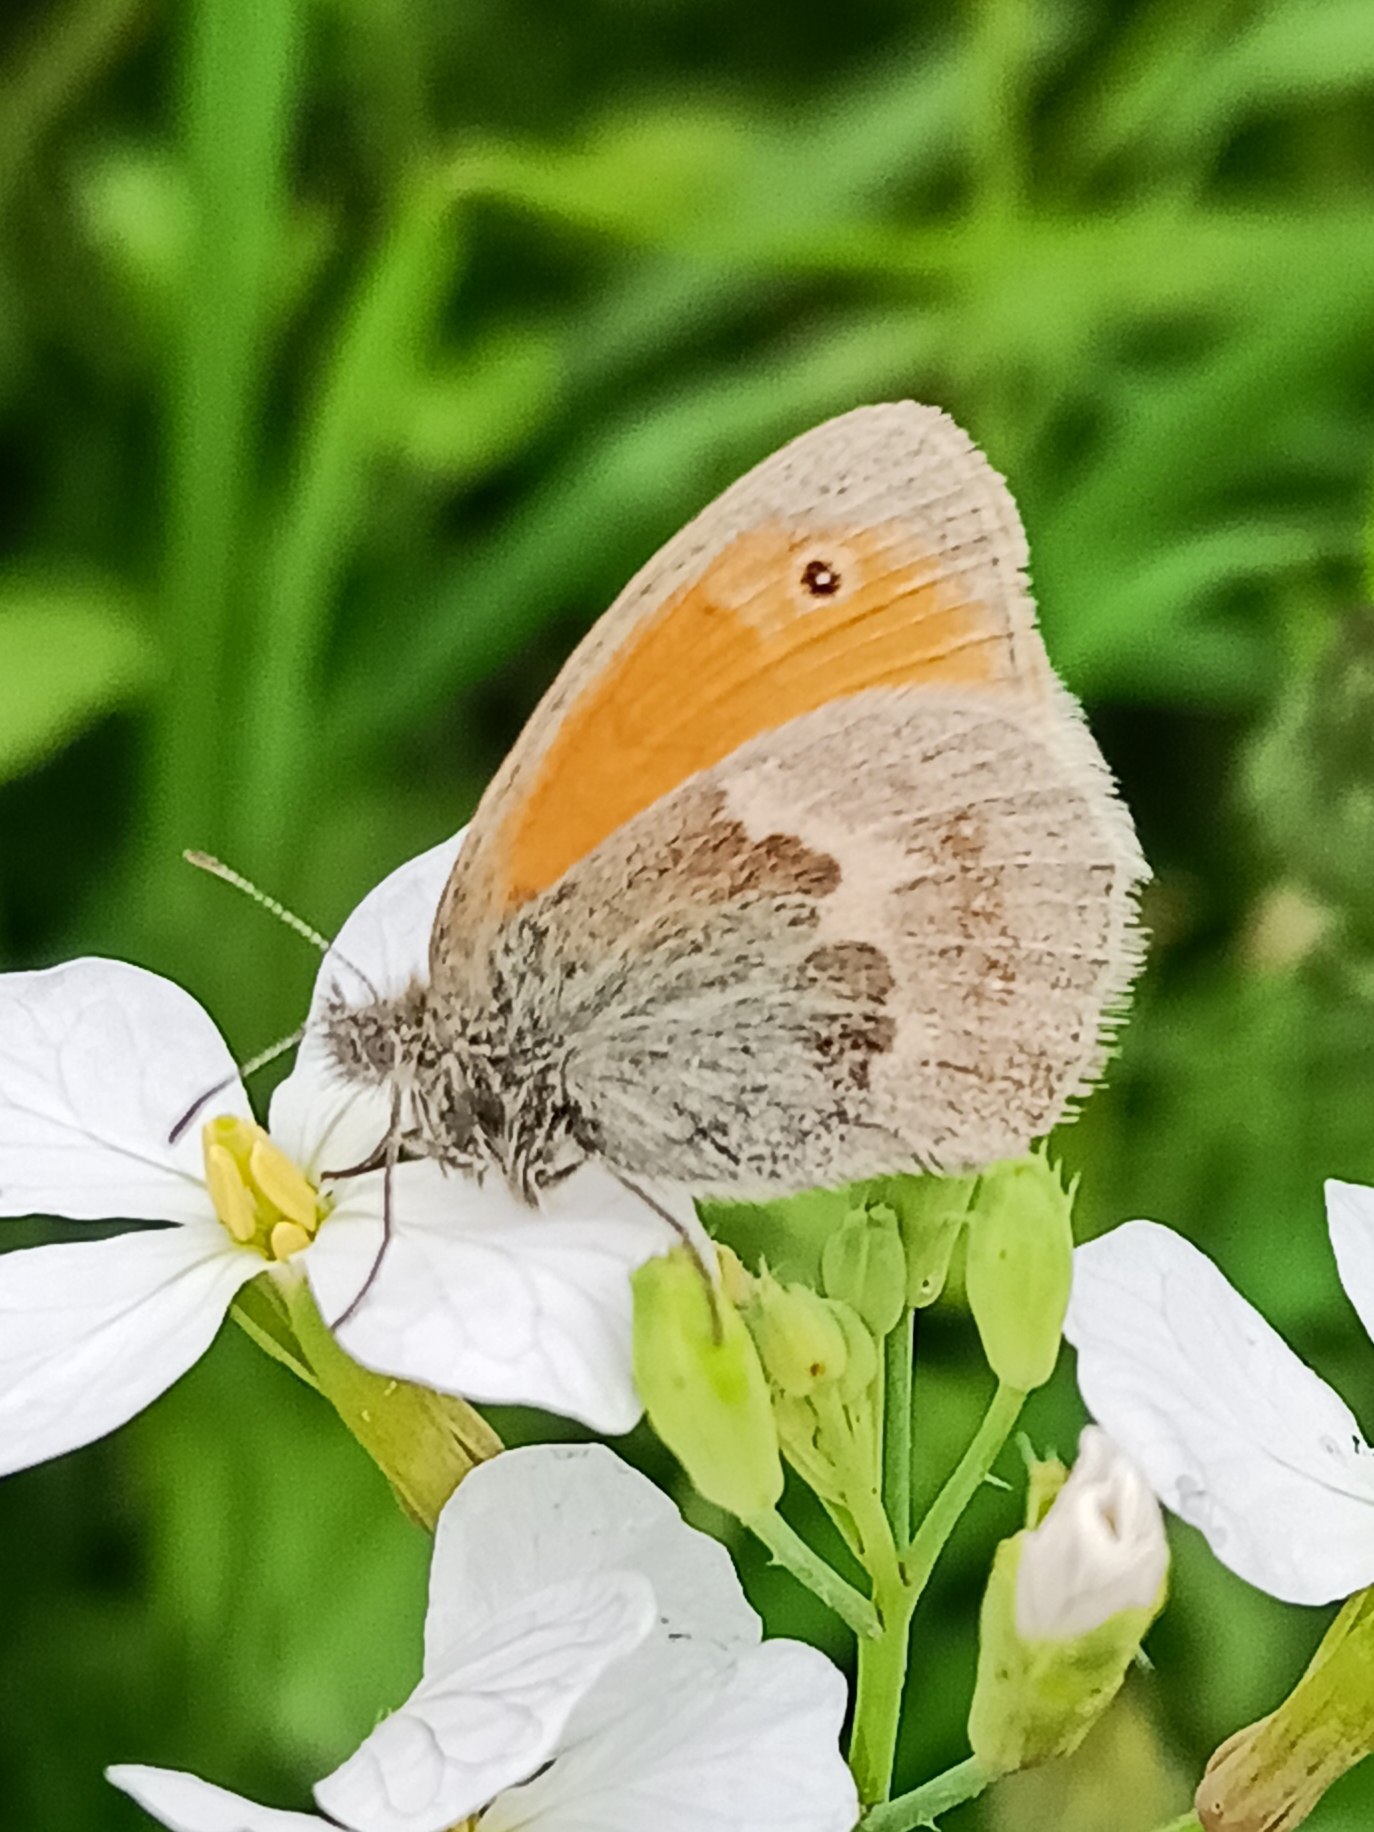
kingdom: Animalia
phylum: Arthropoda
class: Insecta
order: Lepidoptera
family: Nymphalidae
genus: Coenonympha
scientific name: Coenonympha pamphilus
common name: Okkergul randøje
